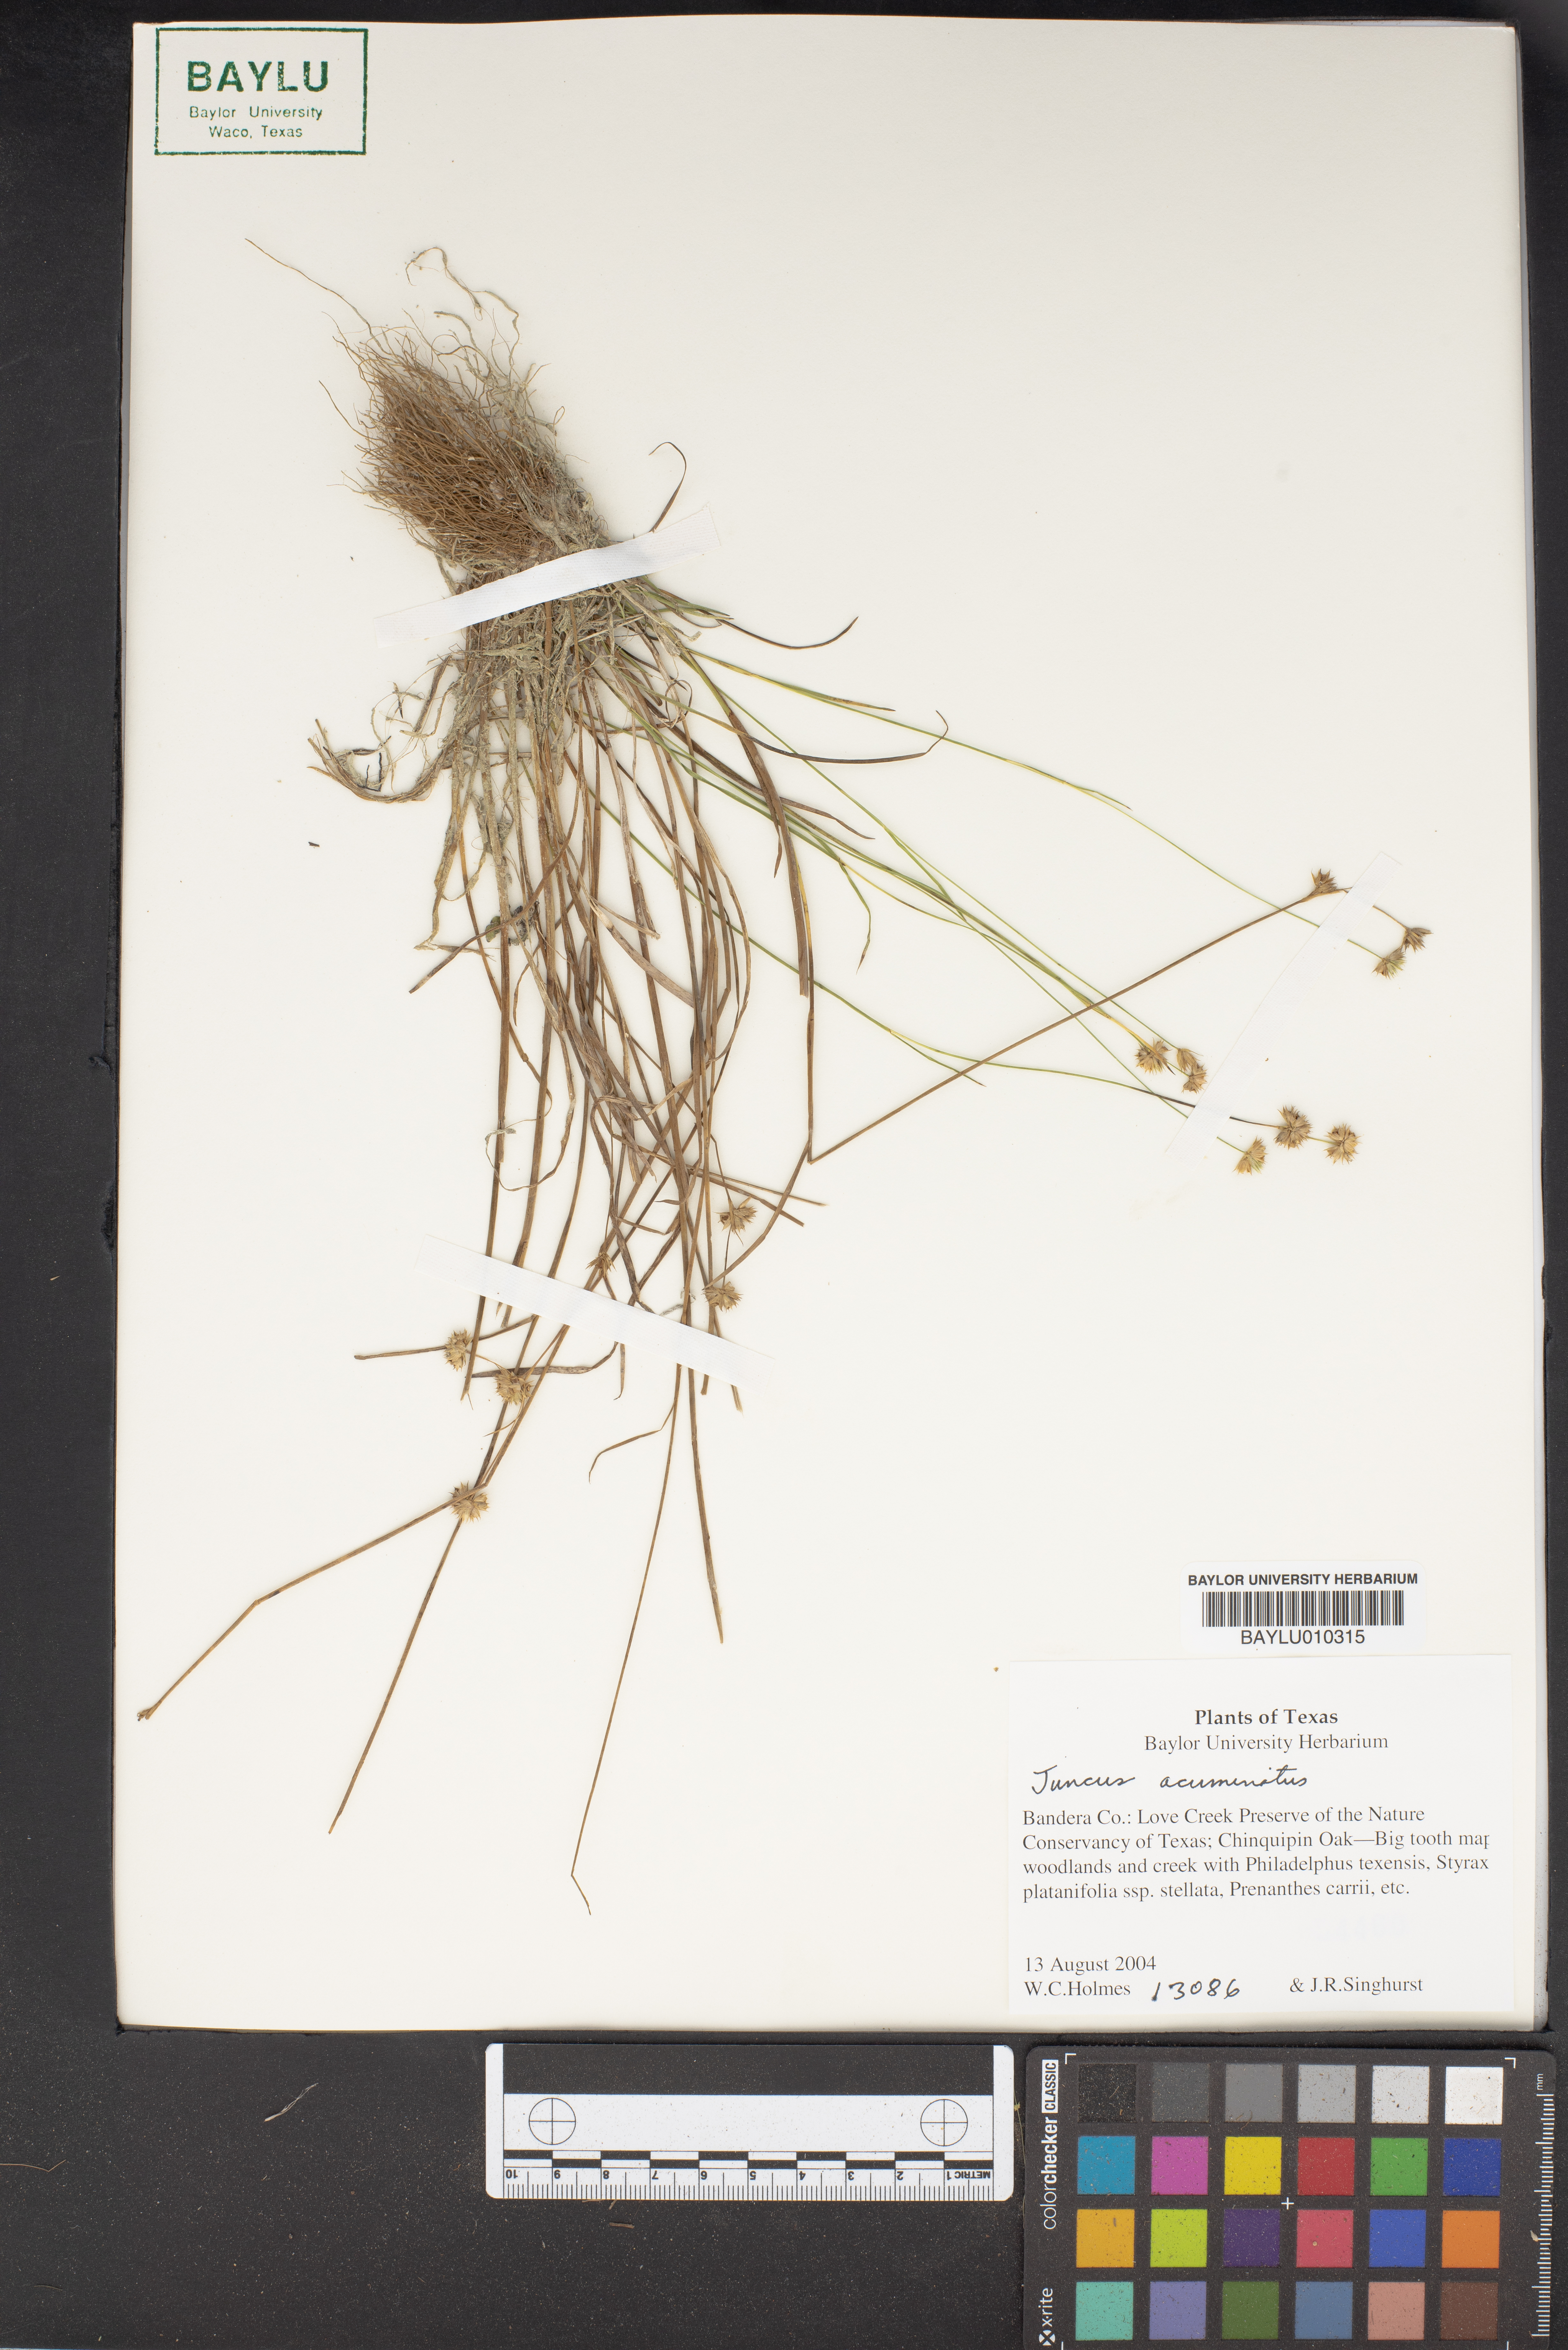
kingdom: Plantae
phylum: Tracheophyta
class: Liliopsida
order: Poales
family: Juncaceae
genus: Juncus
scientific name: Juncus acuminatus
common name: Knotty-leaved rush
